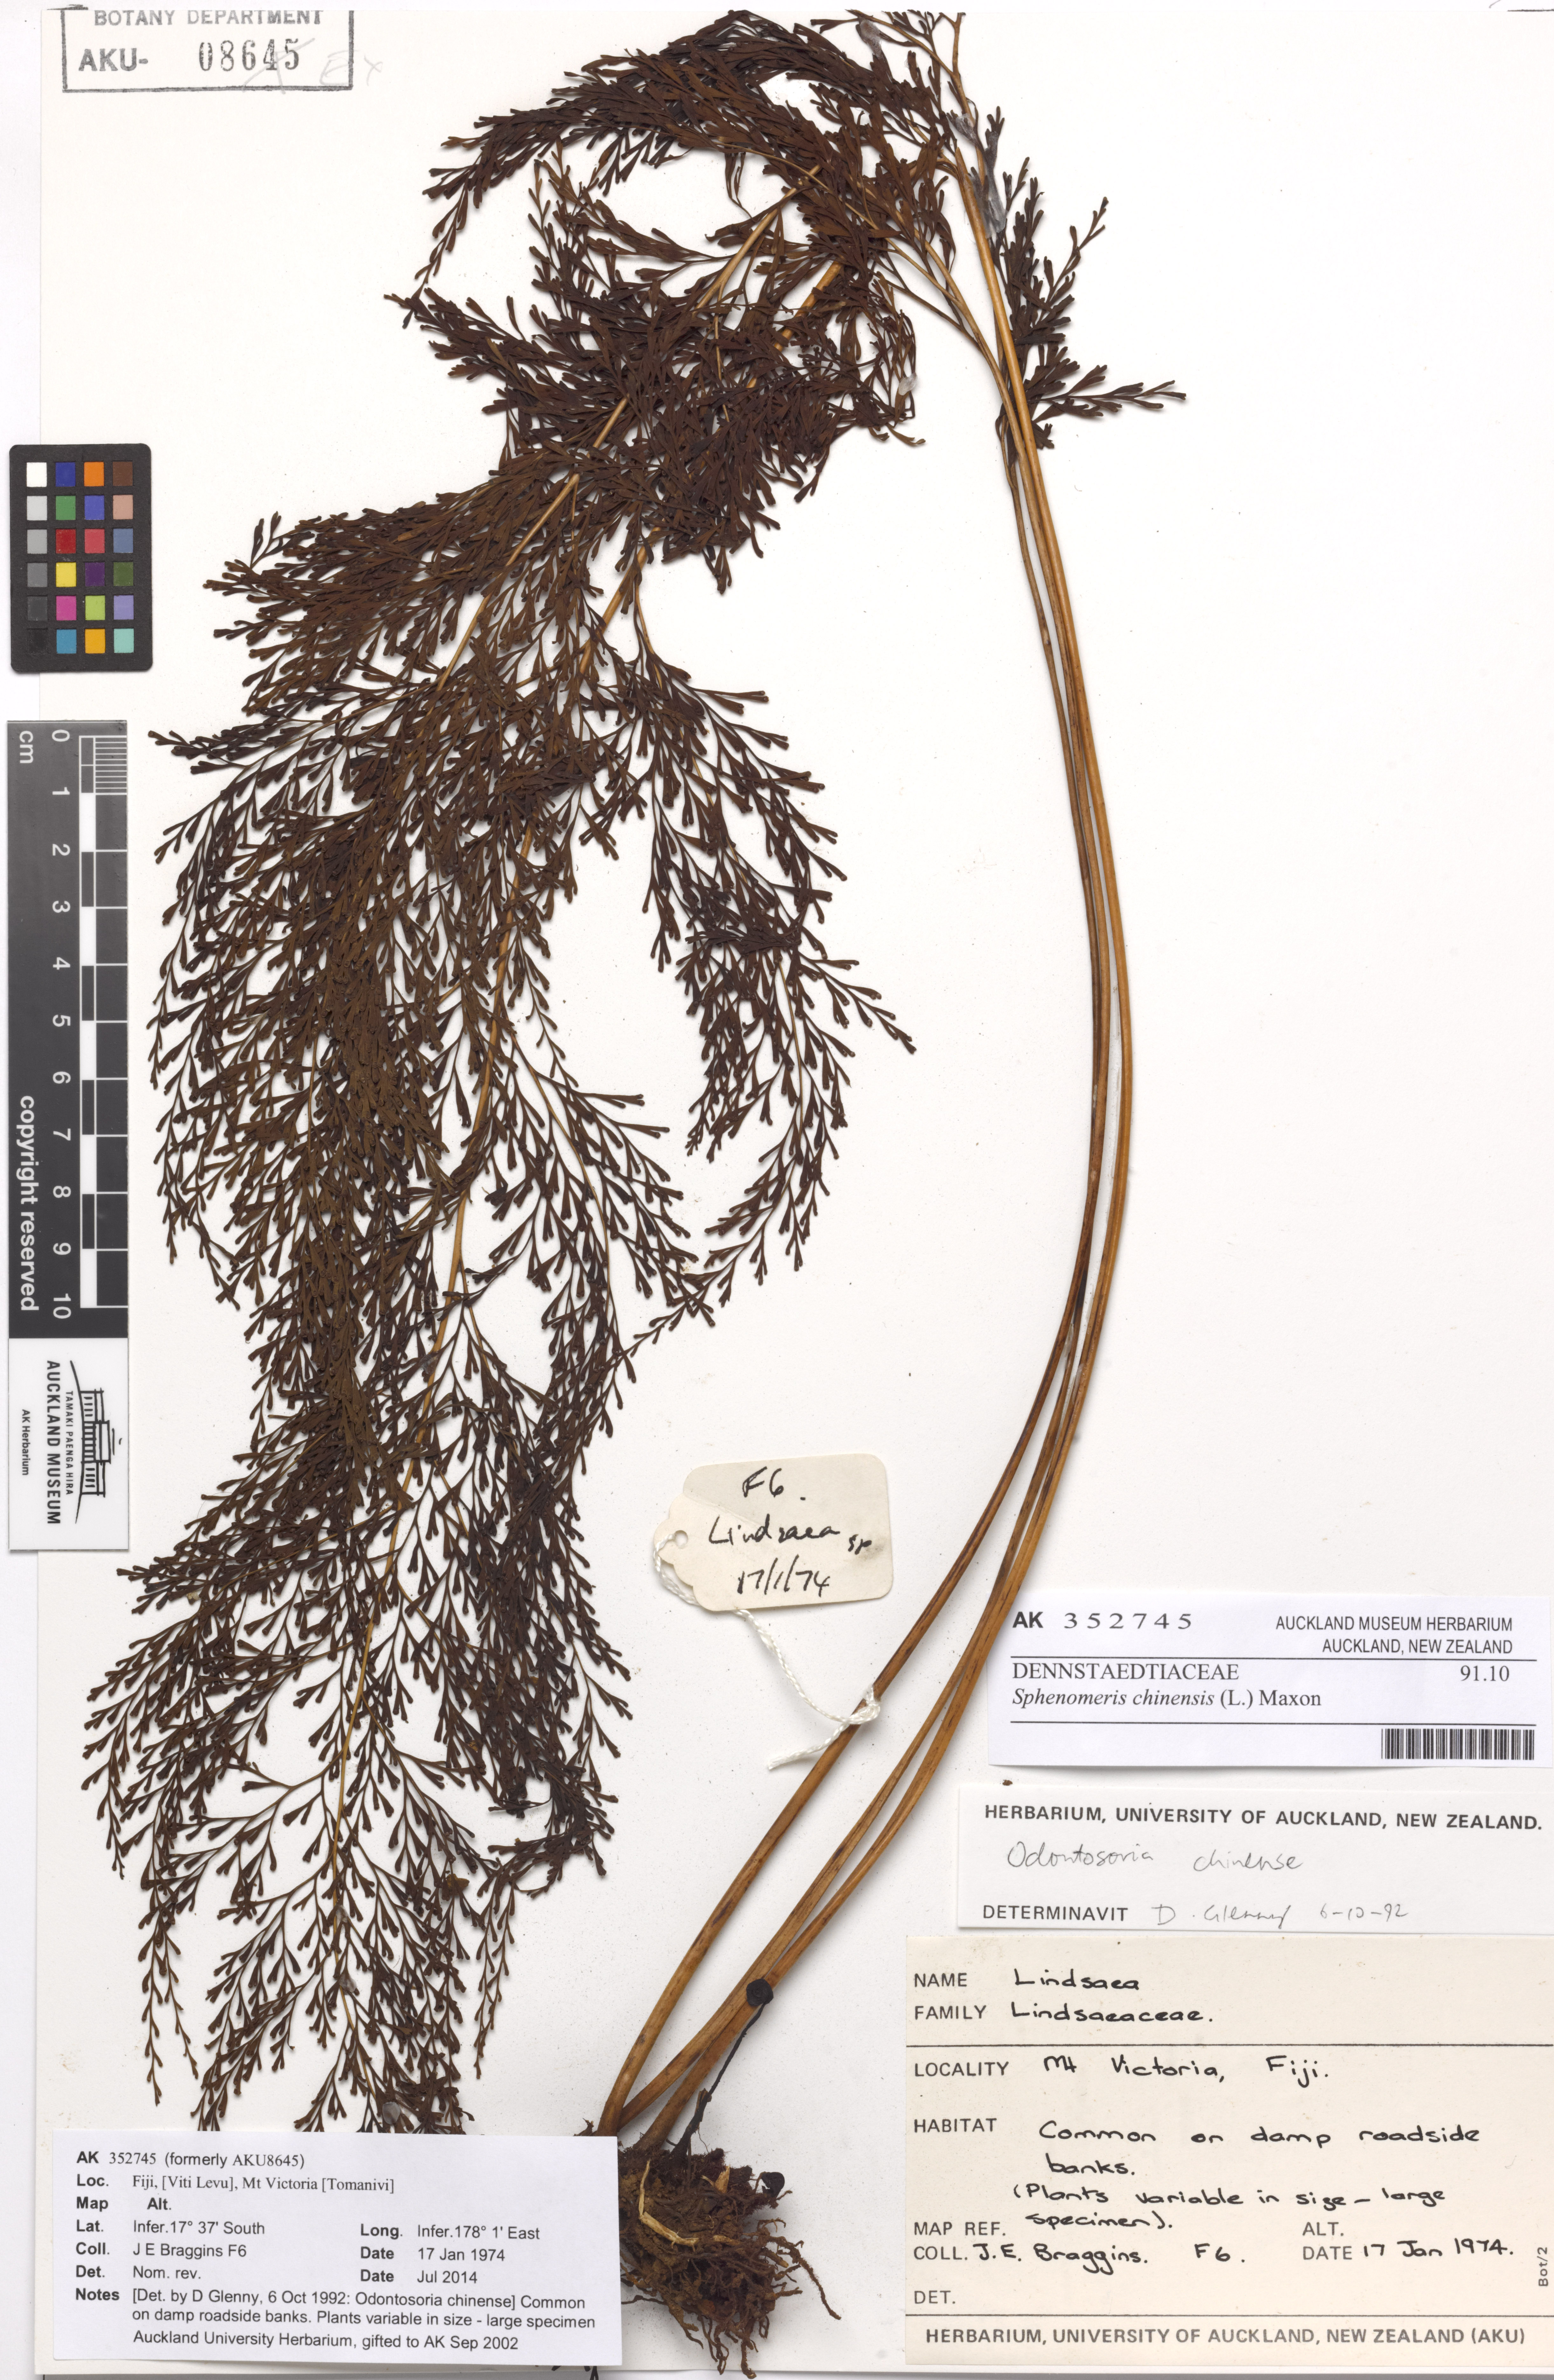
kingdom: Plantae
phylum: Tracheophyta
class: Polypodiopsida
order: Polypodiales
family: Lindsaeaceae
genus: Odontosoria
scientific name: Odontosoria chinensis
